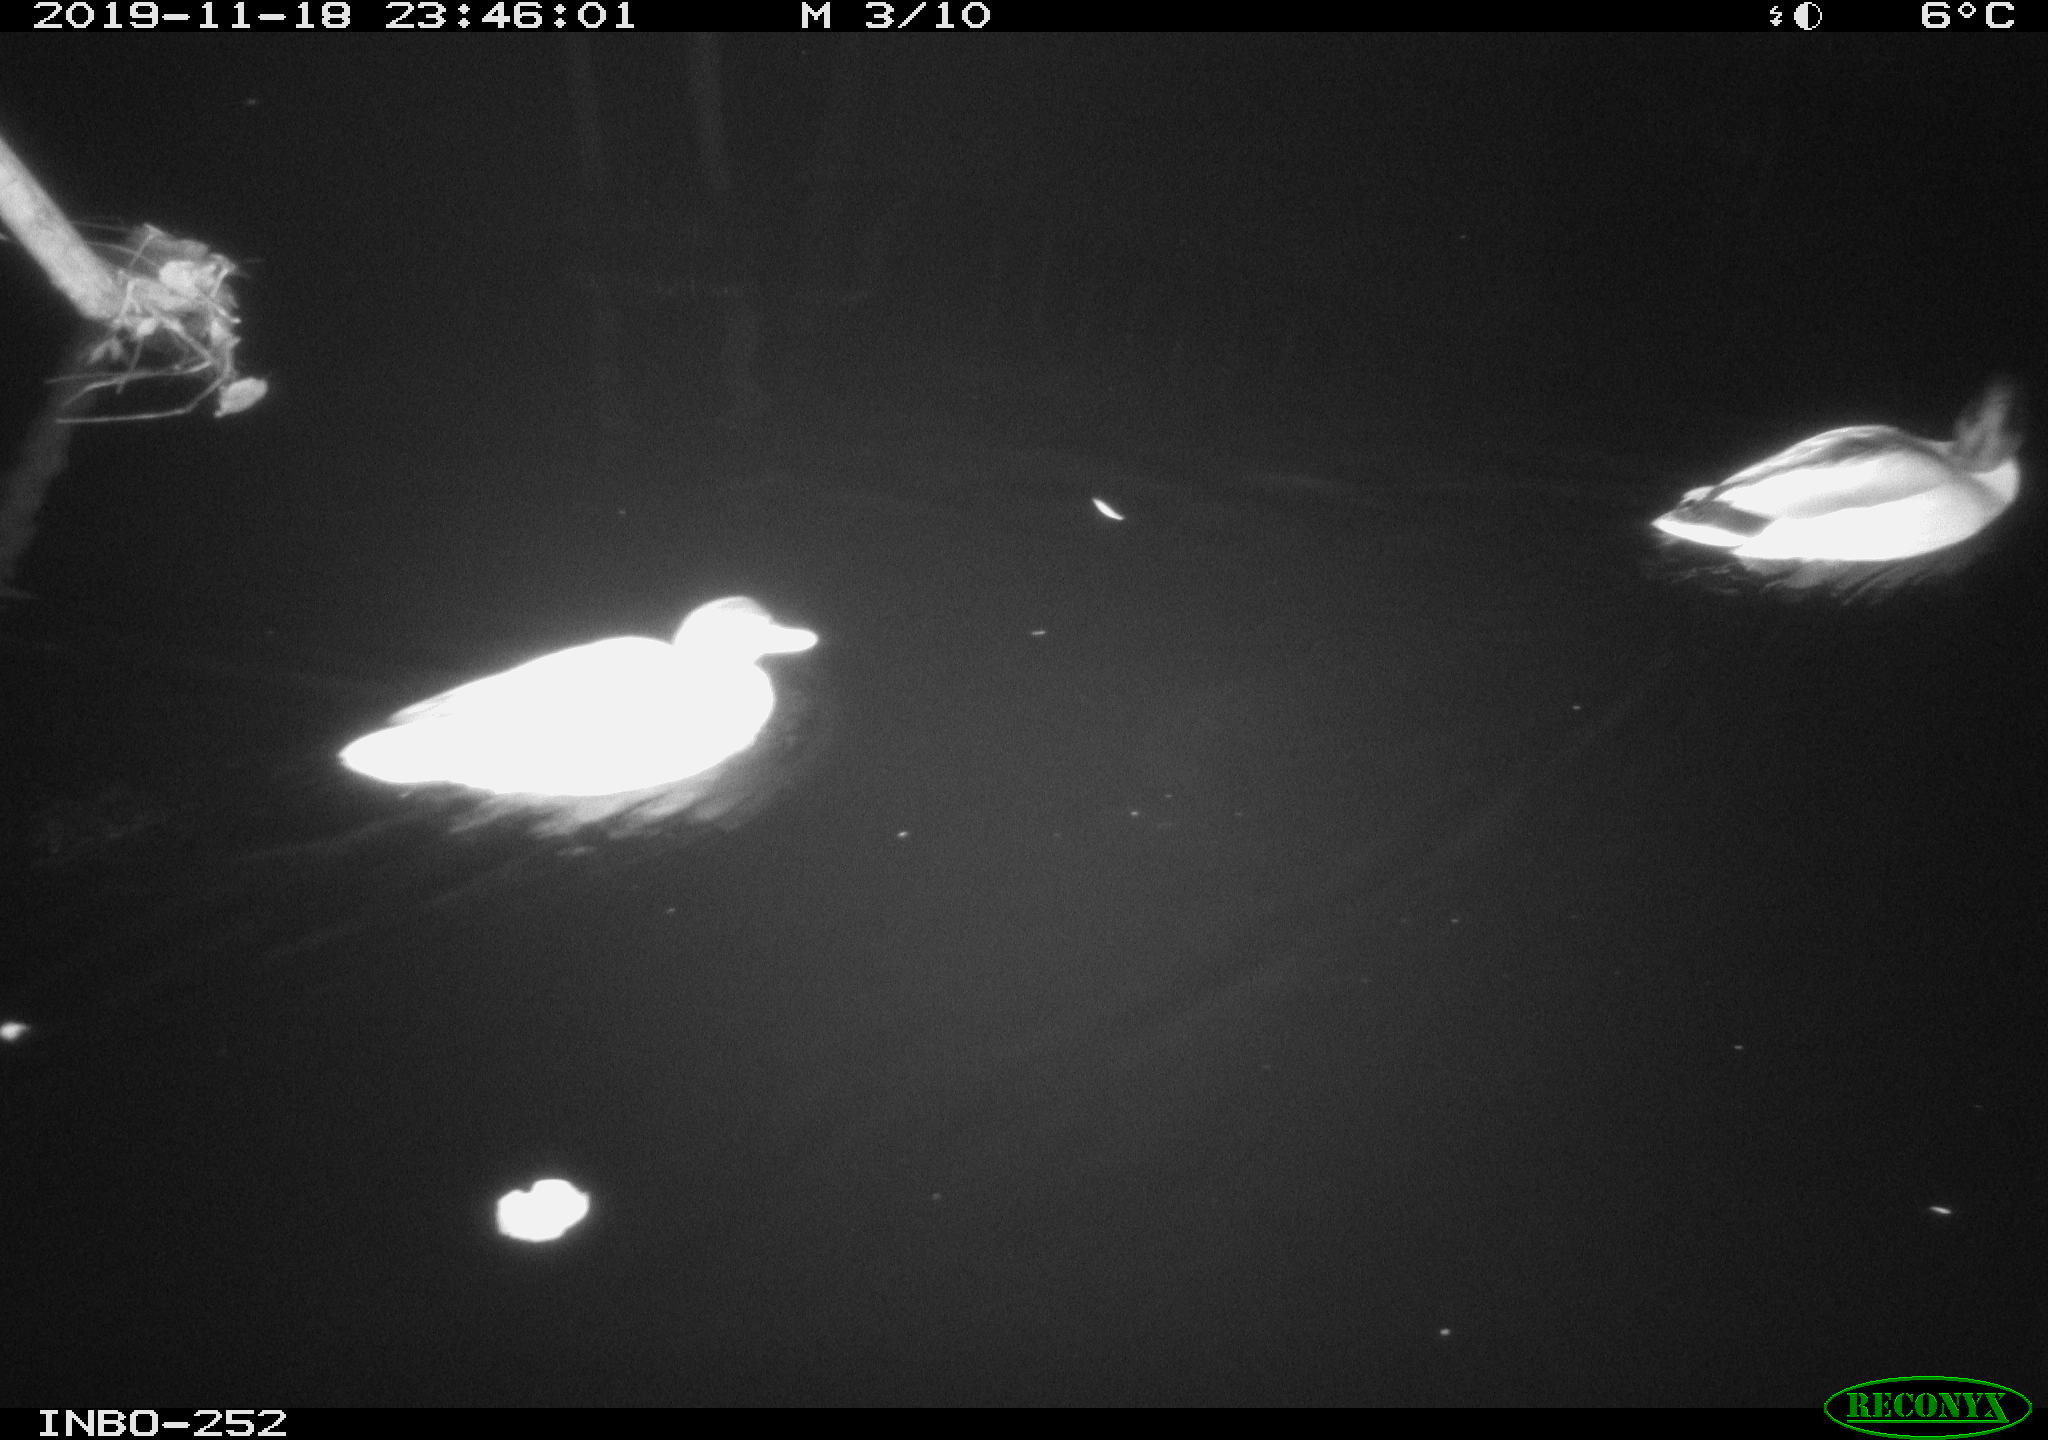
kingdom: Animalia
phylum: Chordata
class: Aves
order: Anseriformes
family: Anatidae
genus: Anas
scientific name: Anas platyrhynchos
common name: Mallard
